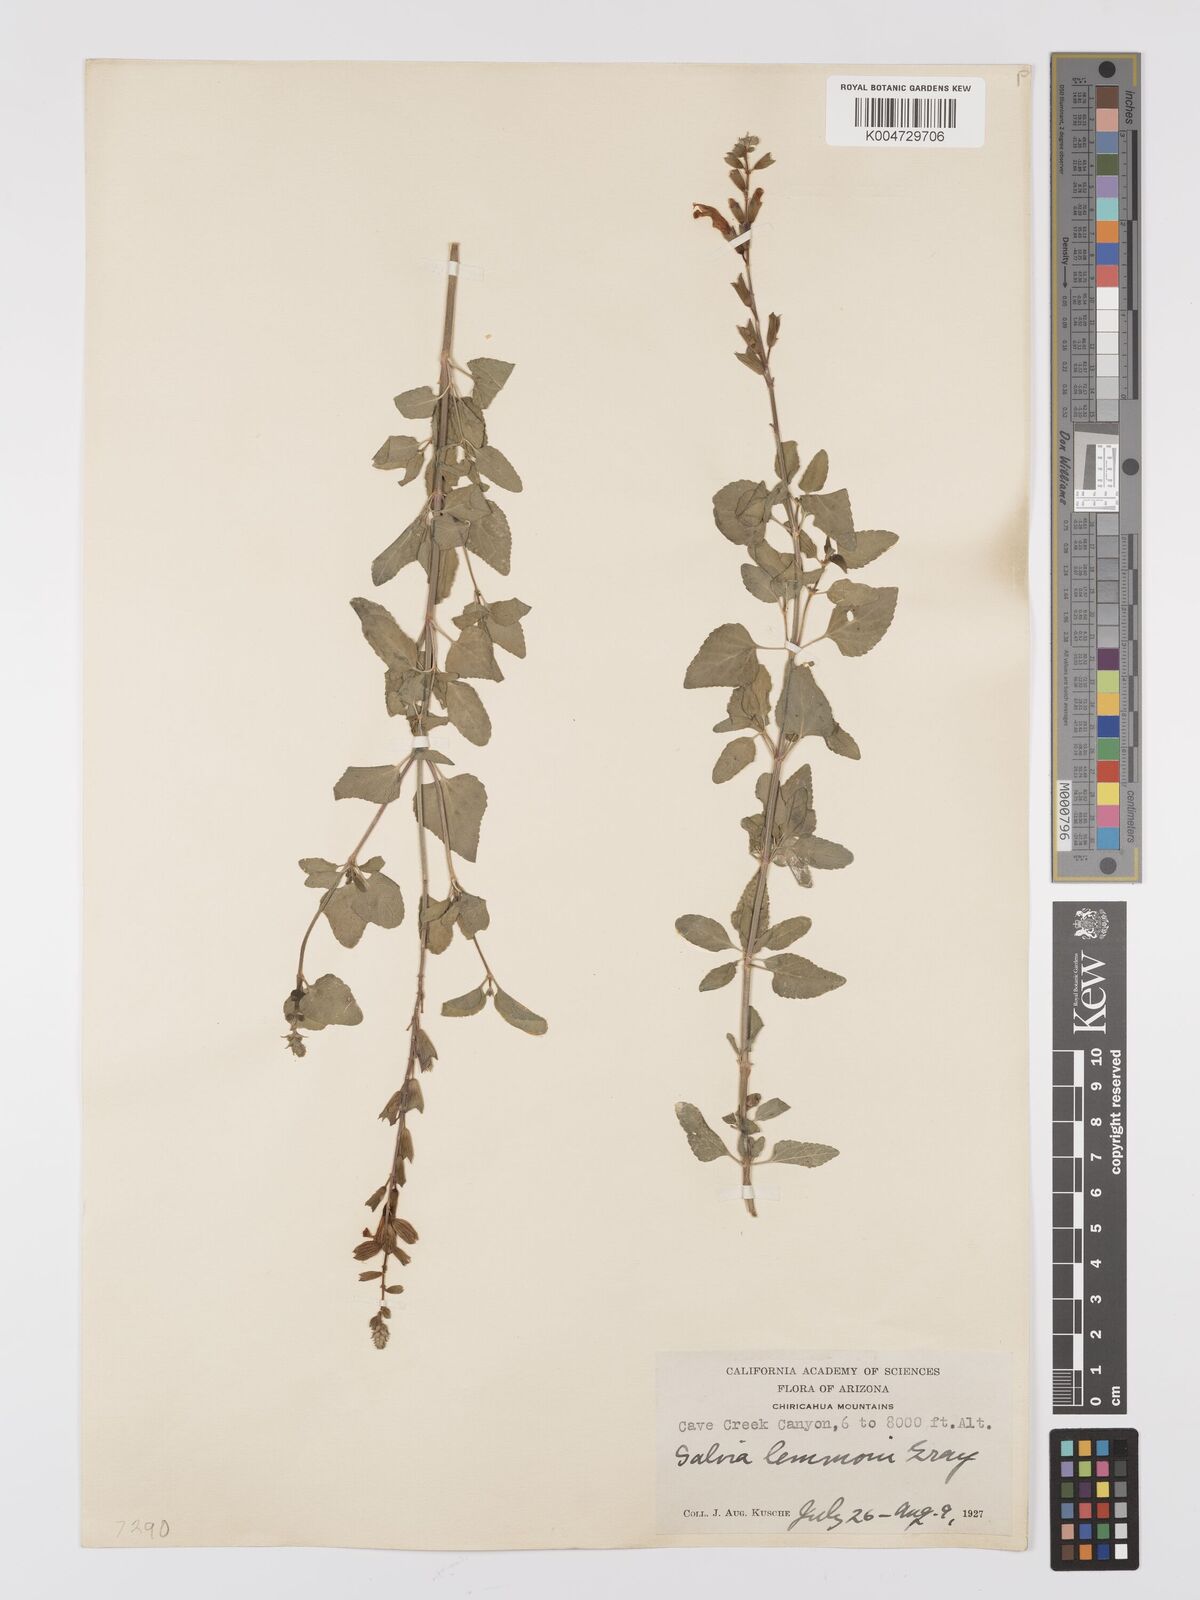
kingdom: Plantae
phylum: Tracheophyta
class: Magnoliopsida
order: Lamiales
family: Lamiaceae
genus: Salvia
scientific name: Salvia
